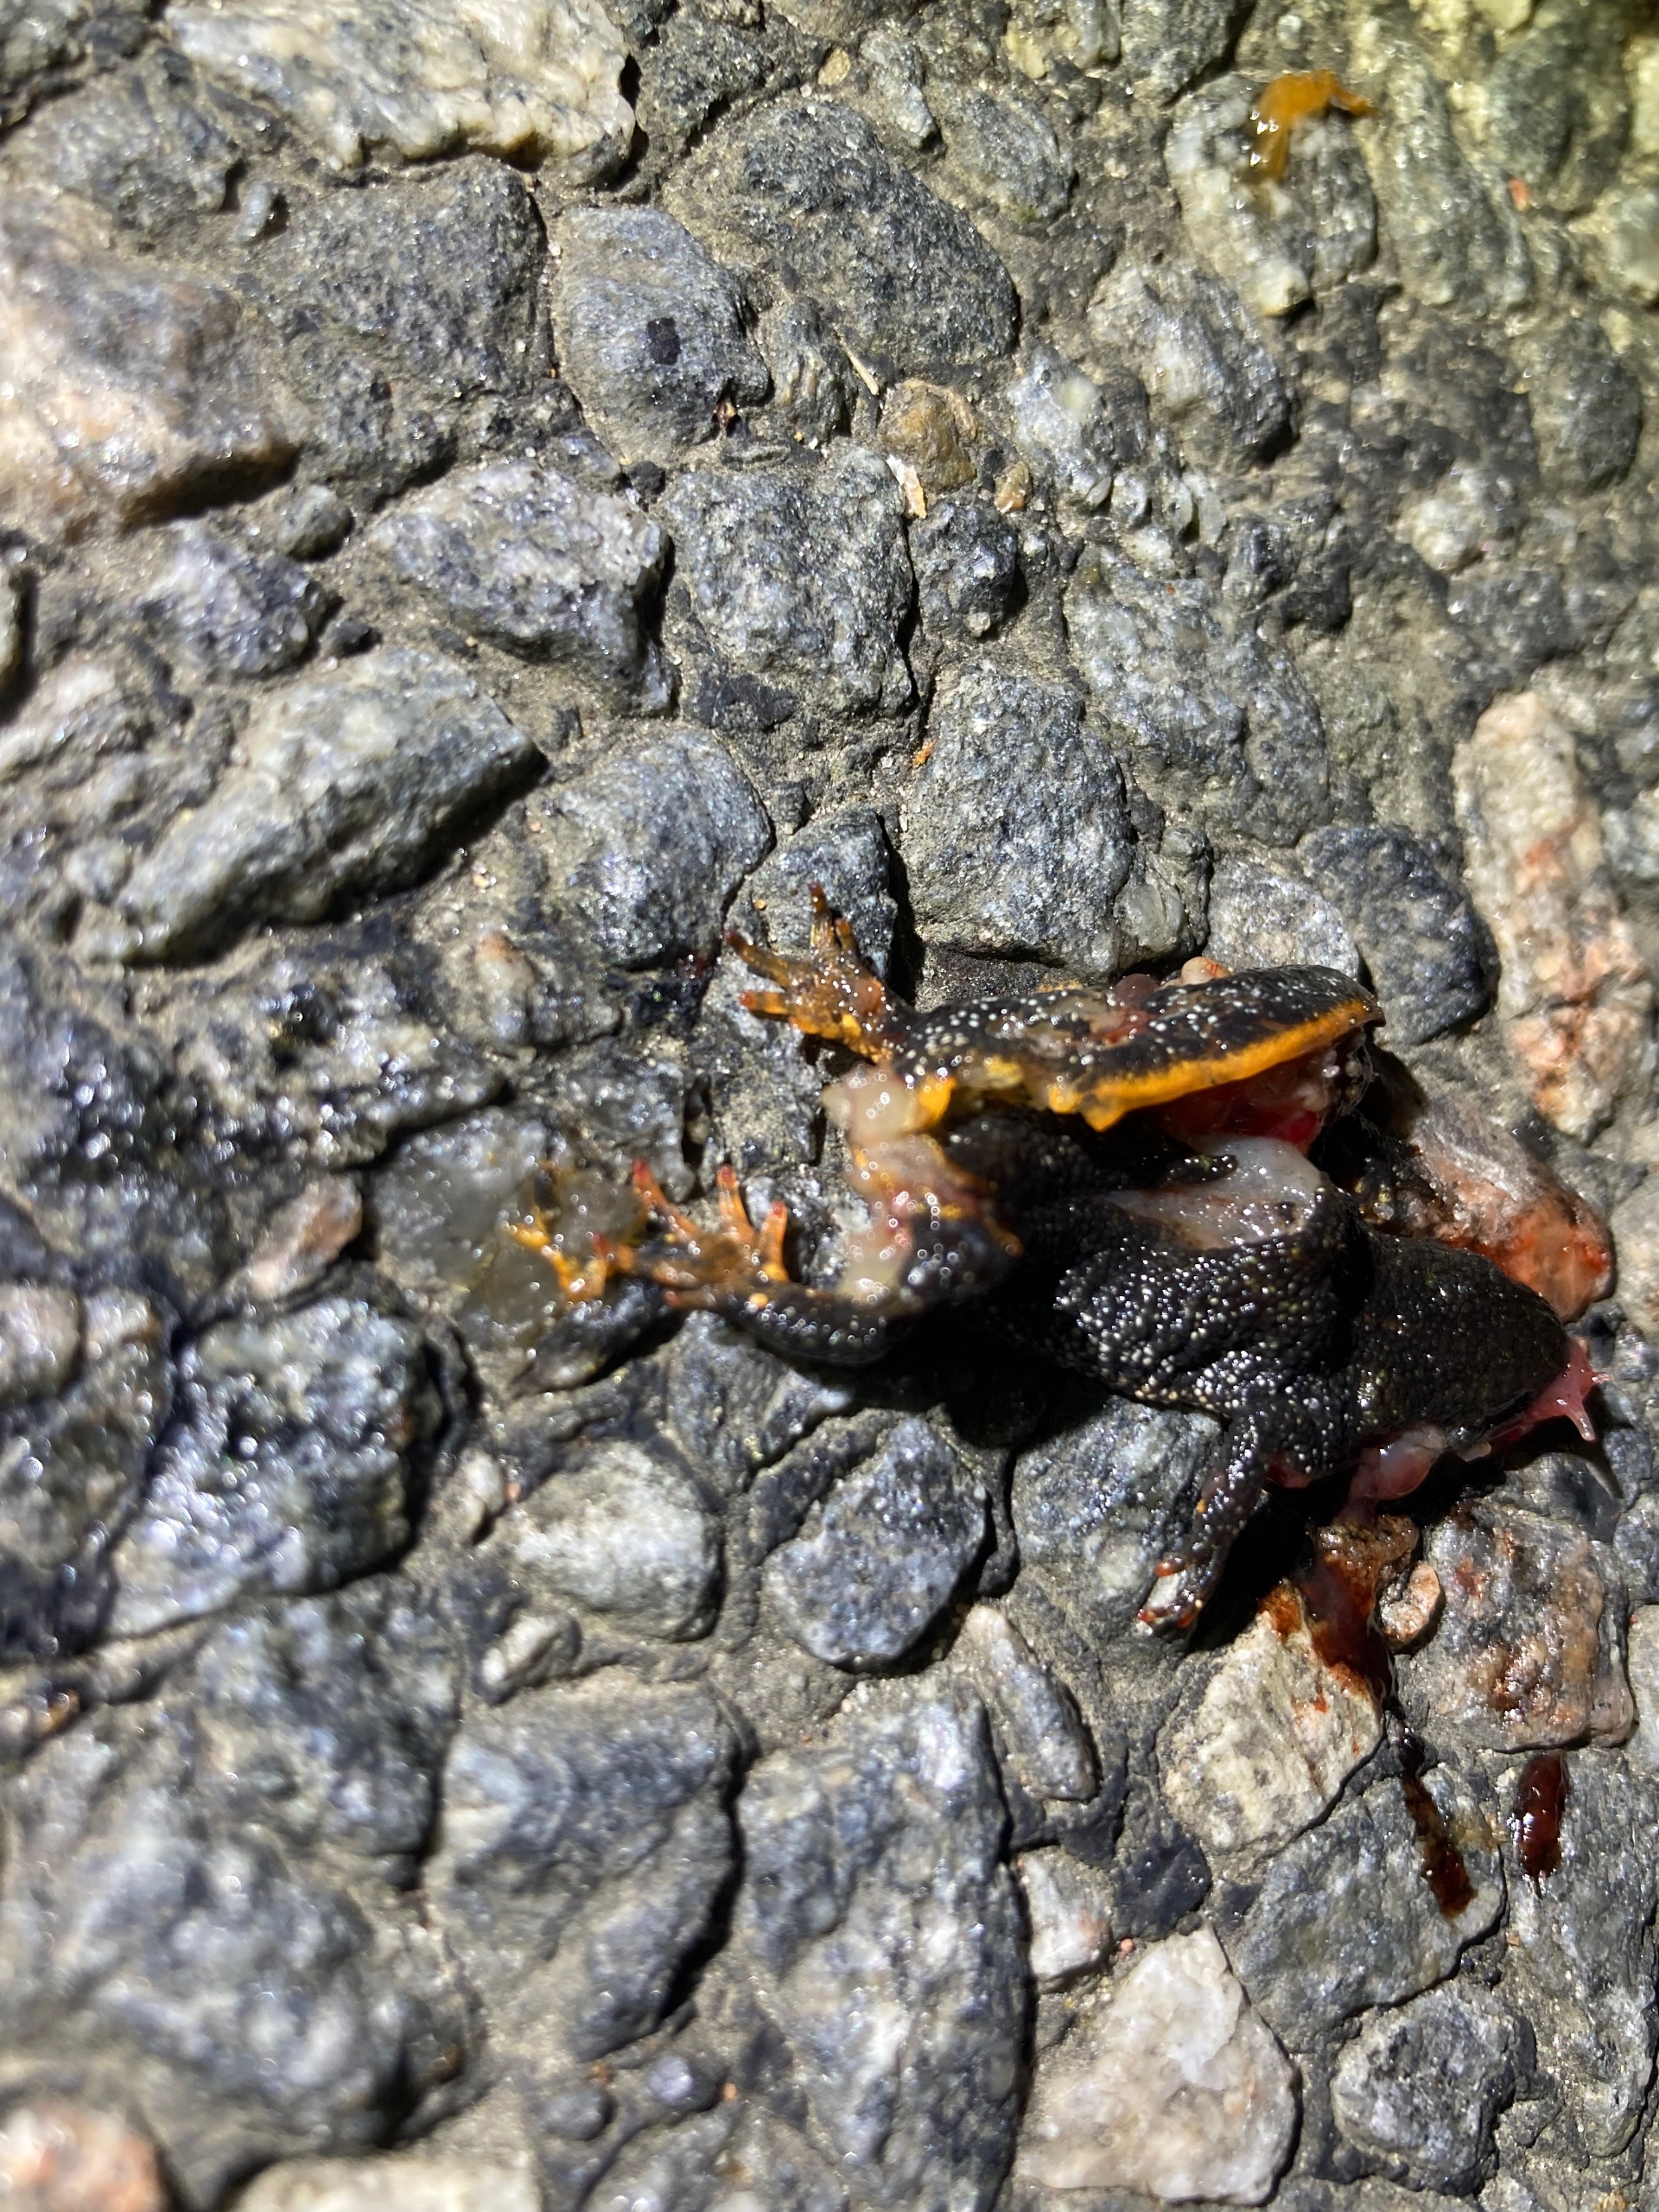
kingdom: Animalia
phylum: Chordata
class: Amphibia
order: Caudata
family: Salamandridae
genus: Triturus
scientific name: Triturus cristatus
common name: Stor vandsalamander
